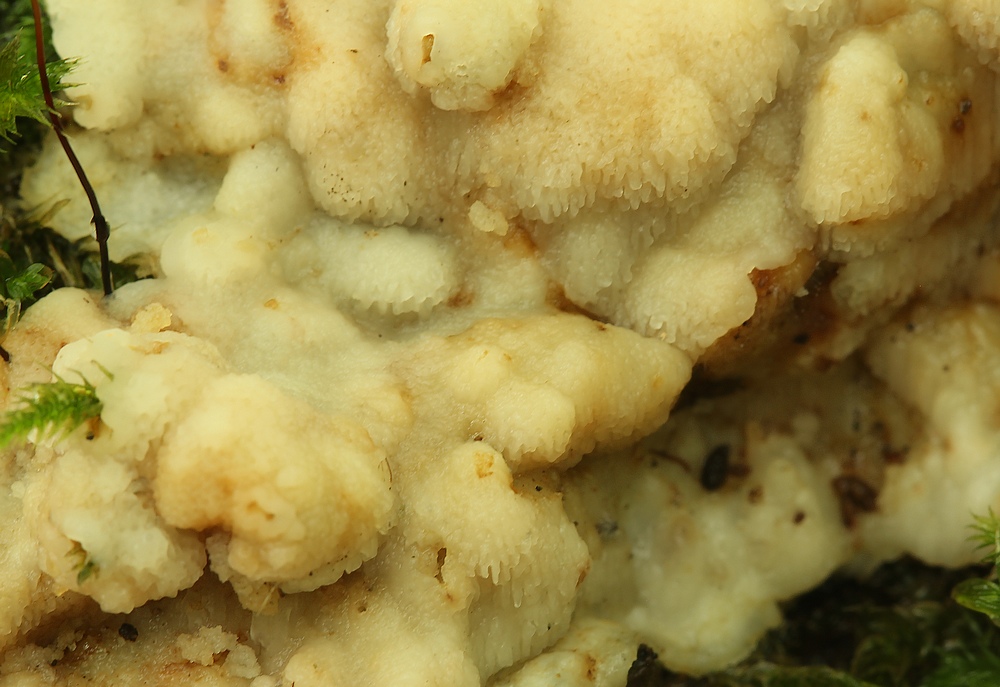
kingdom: Fungi
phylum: Basidiomycota
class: Agaricomycetes
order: Polyporales
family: Meruliaceae
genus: Physisporinus
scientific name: Physisporinus
